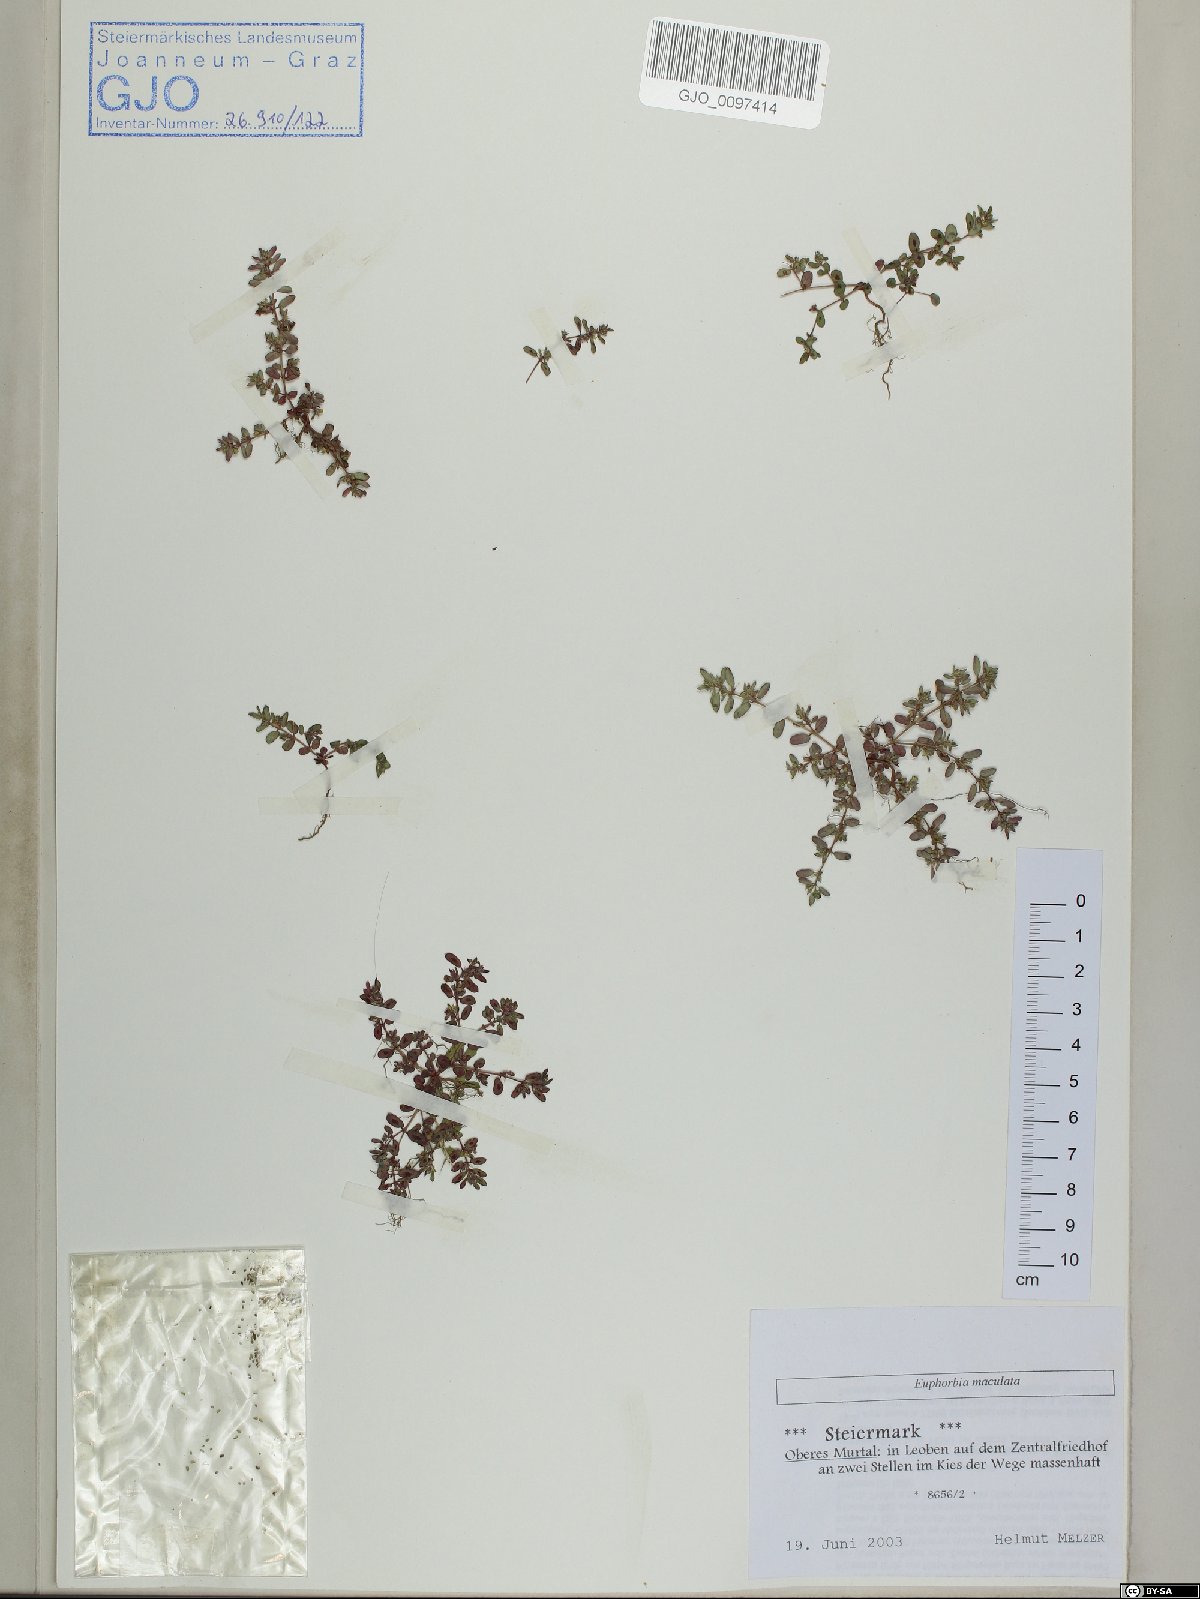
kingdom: Plantae
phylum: Tracheophyta
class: Magnoliopsida
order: Malpighiales
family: Euphorbiaceae
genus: Euphorbia
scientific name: Euphorbia maculata
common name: Spotted spurge
